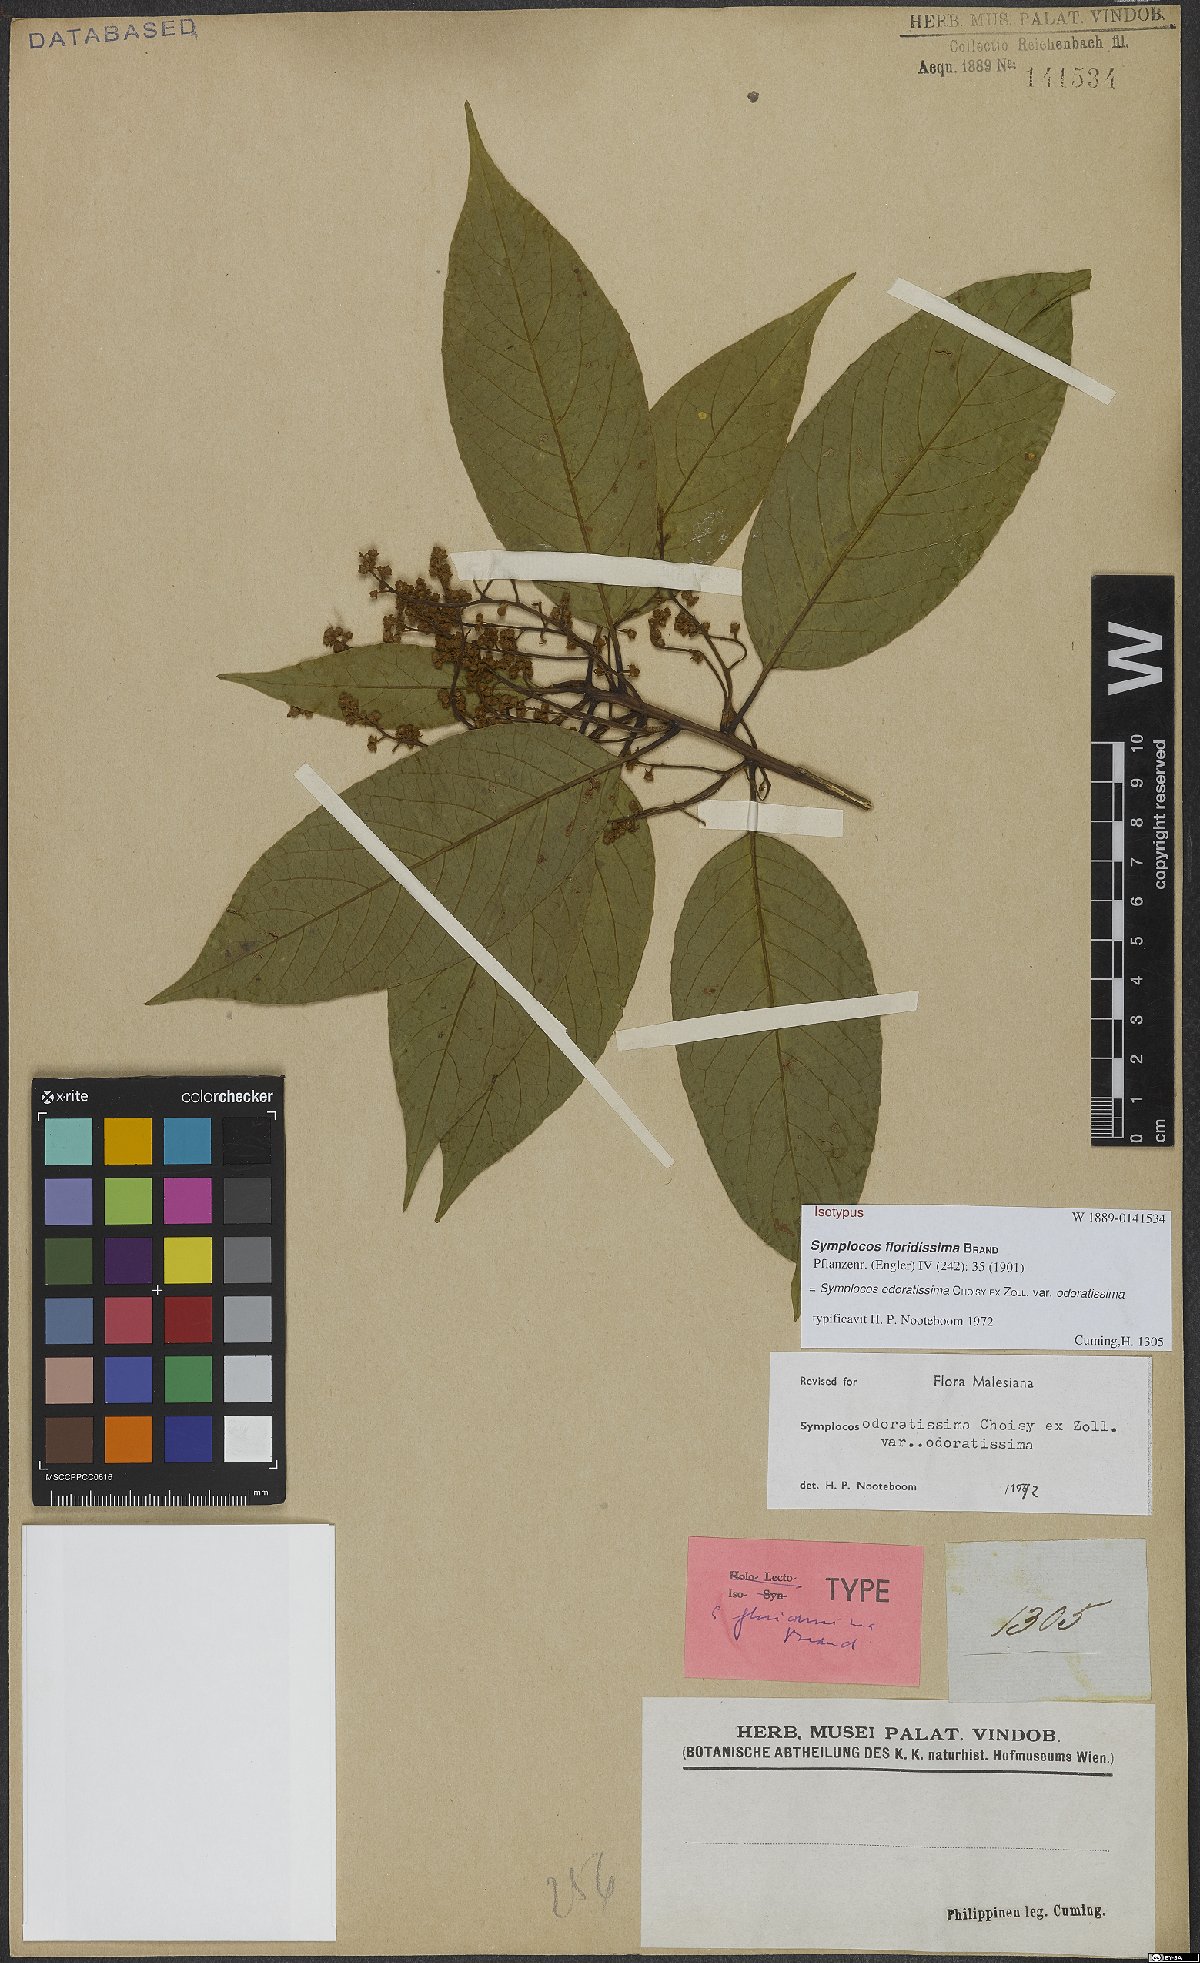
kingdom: Plantae
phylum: Tracheophyta
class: Magnoliopsida
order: Ericales
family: Symplocaceae
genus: Symplocos
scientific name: Symplocos odoratissima
